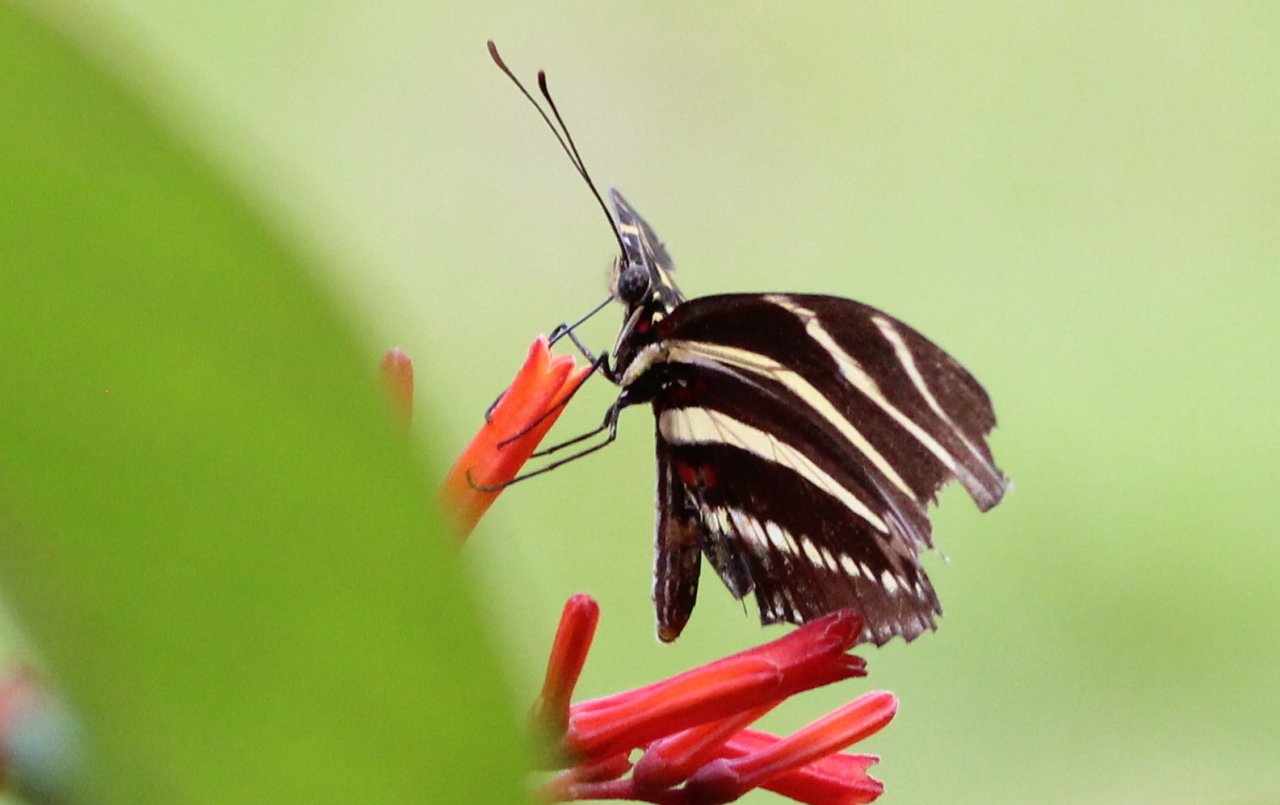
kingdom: Animalia
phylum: Arthropoda
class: Insecta
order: Lepidoptera
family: Nymphalidae
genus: Heliconius
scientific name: Heliconius charithonia
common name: Zebra Longwing
